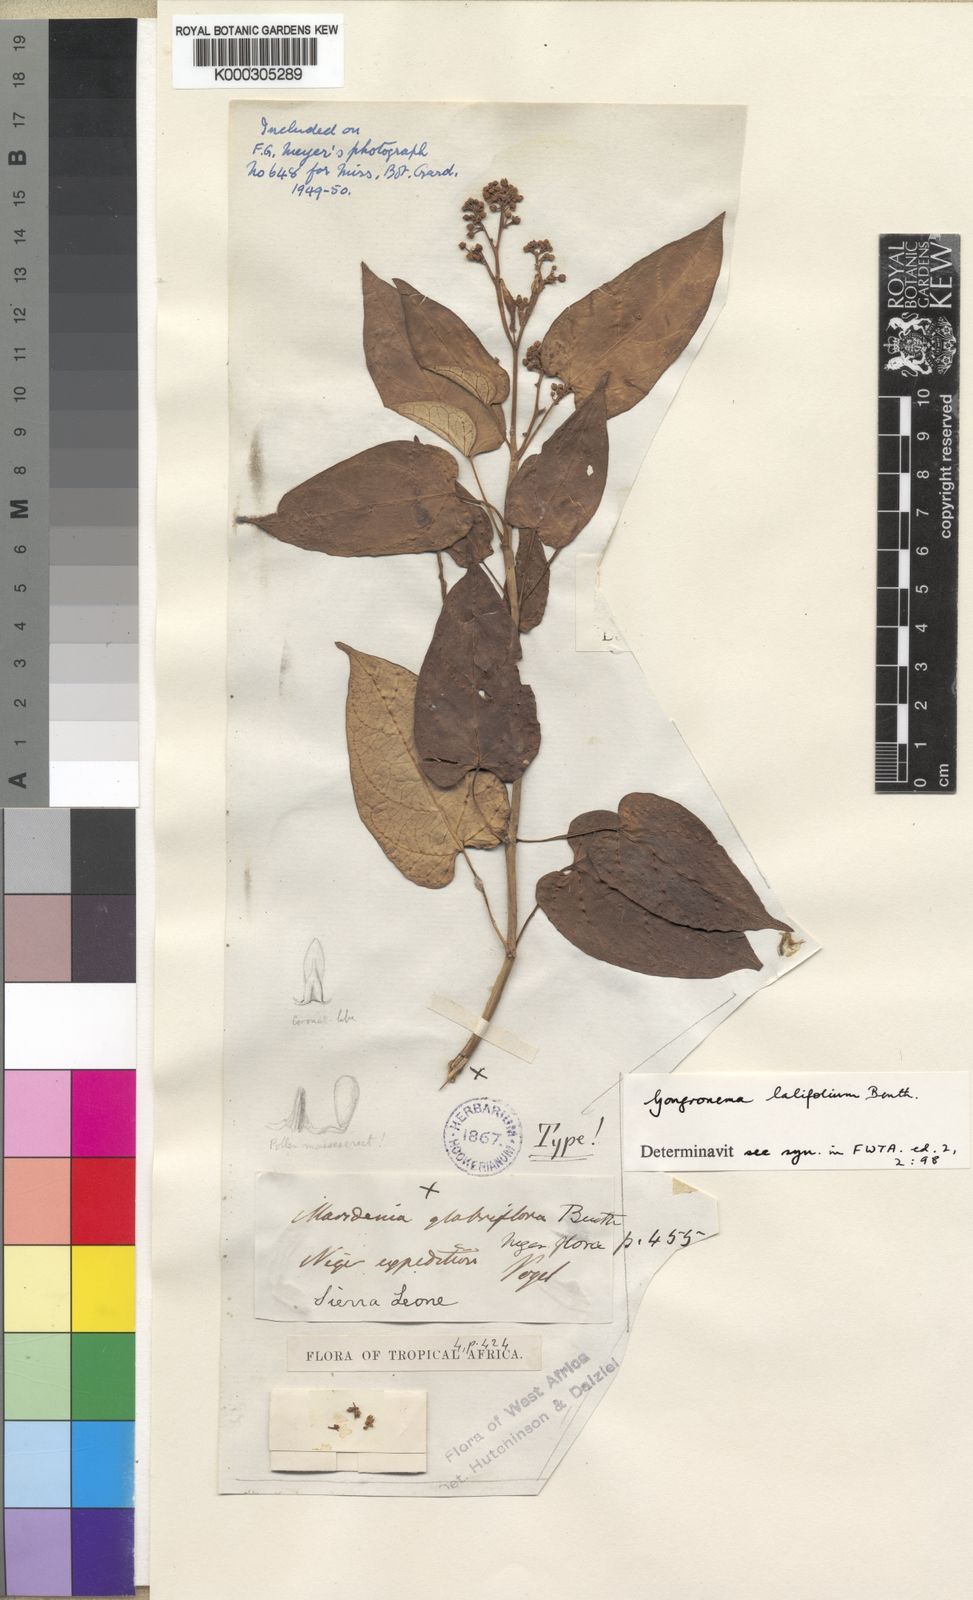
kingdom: Plantae
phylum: Tracheophyta
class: Magnoliopsida
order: Gentianales
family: Apocynaceae
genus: Gongronemopsis
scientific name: Gongronemopsis latifolia
